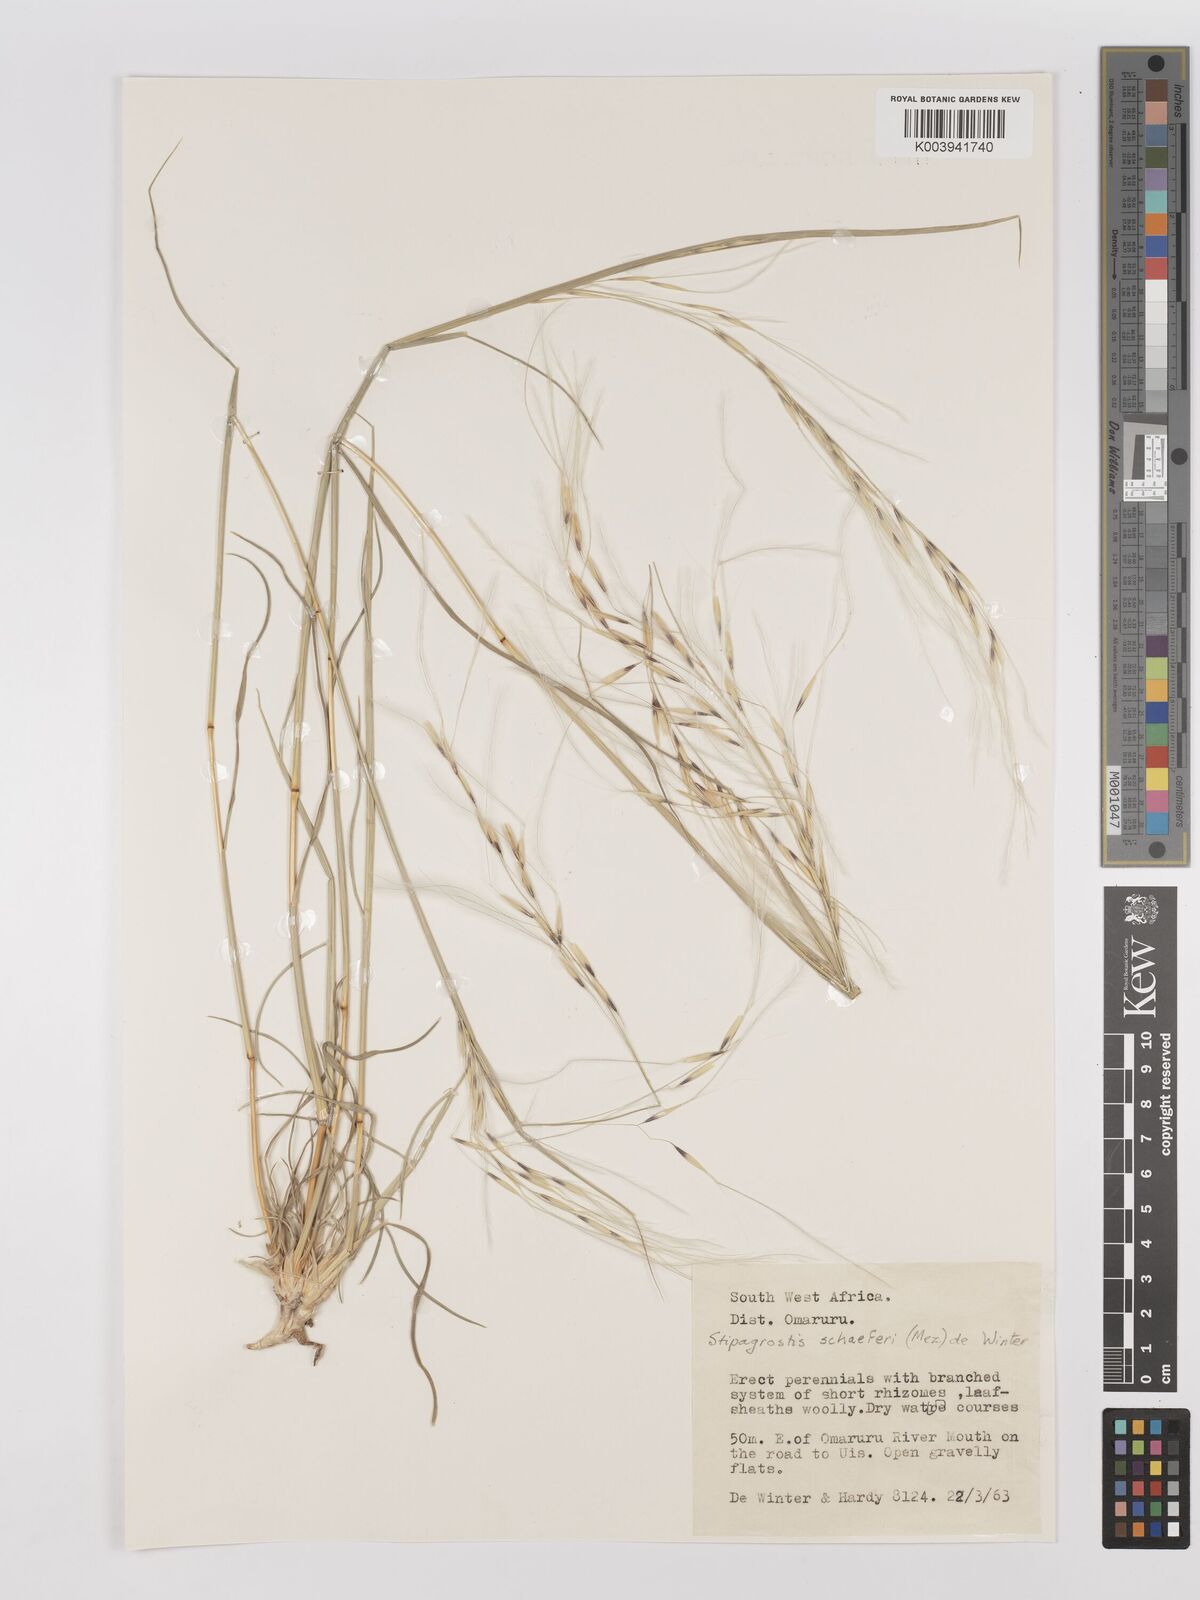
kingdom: Plantae
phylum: Tracheophyta
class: Liliopsida
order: Poales
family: Poaceae
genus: Stipagrostis
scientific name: Stipagrostis schaeferi
